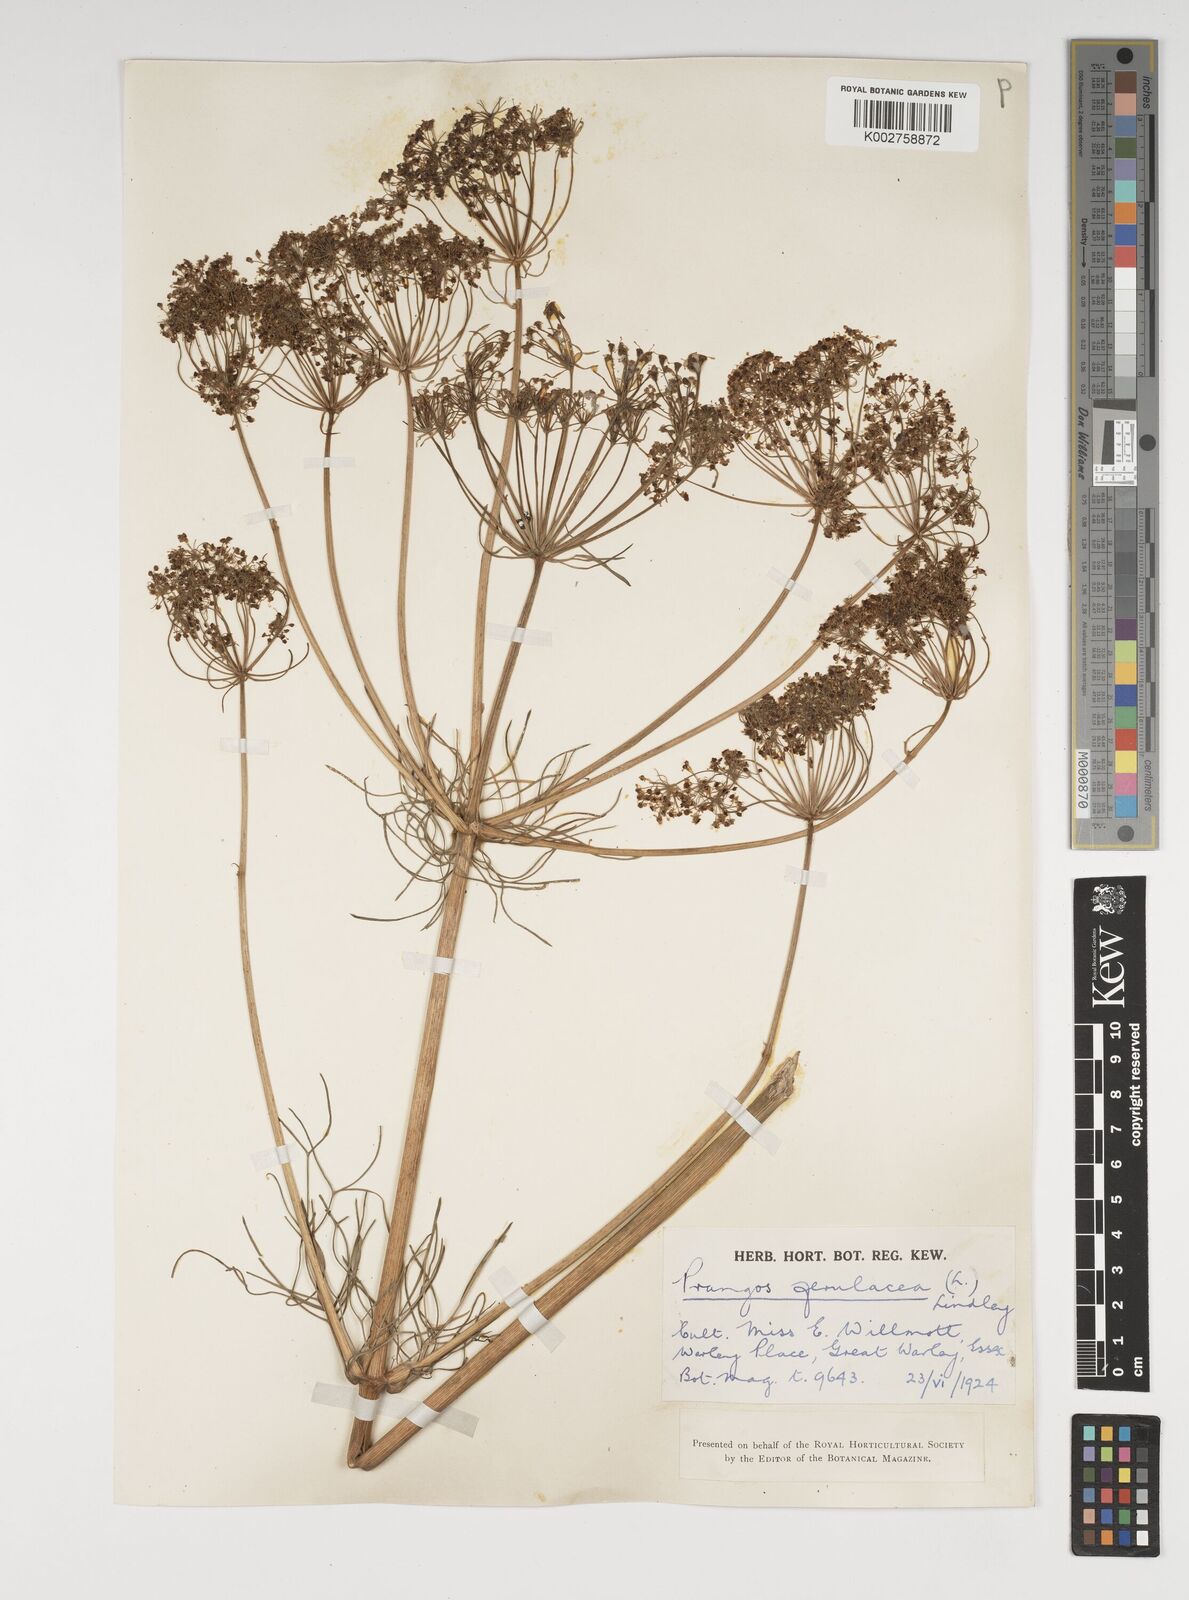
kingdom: Plantae
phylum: Tracheophyta
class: Magnoliopsida
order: Apiales
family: Apiaceae
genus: Prangos
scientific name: Prangos ferulacea
